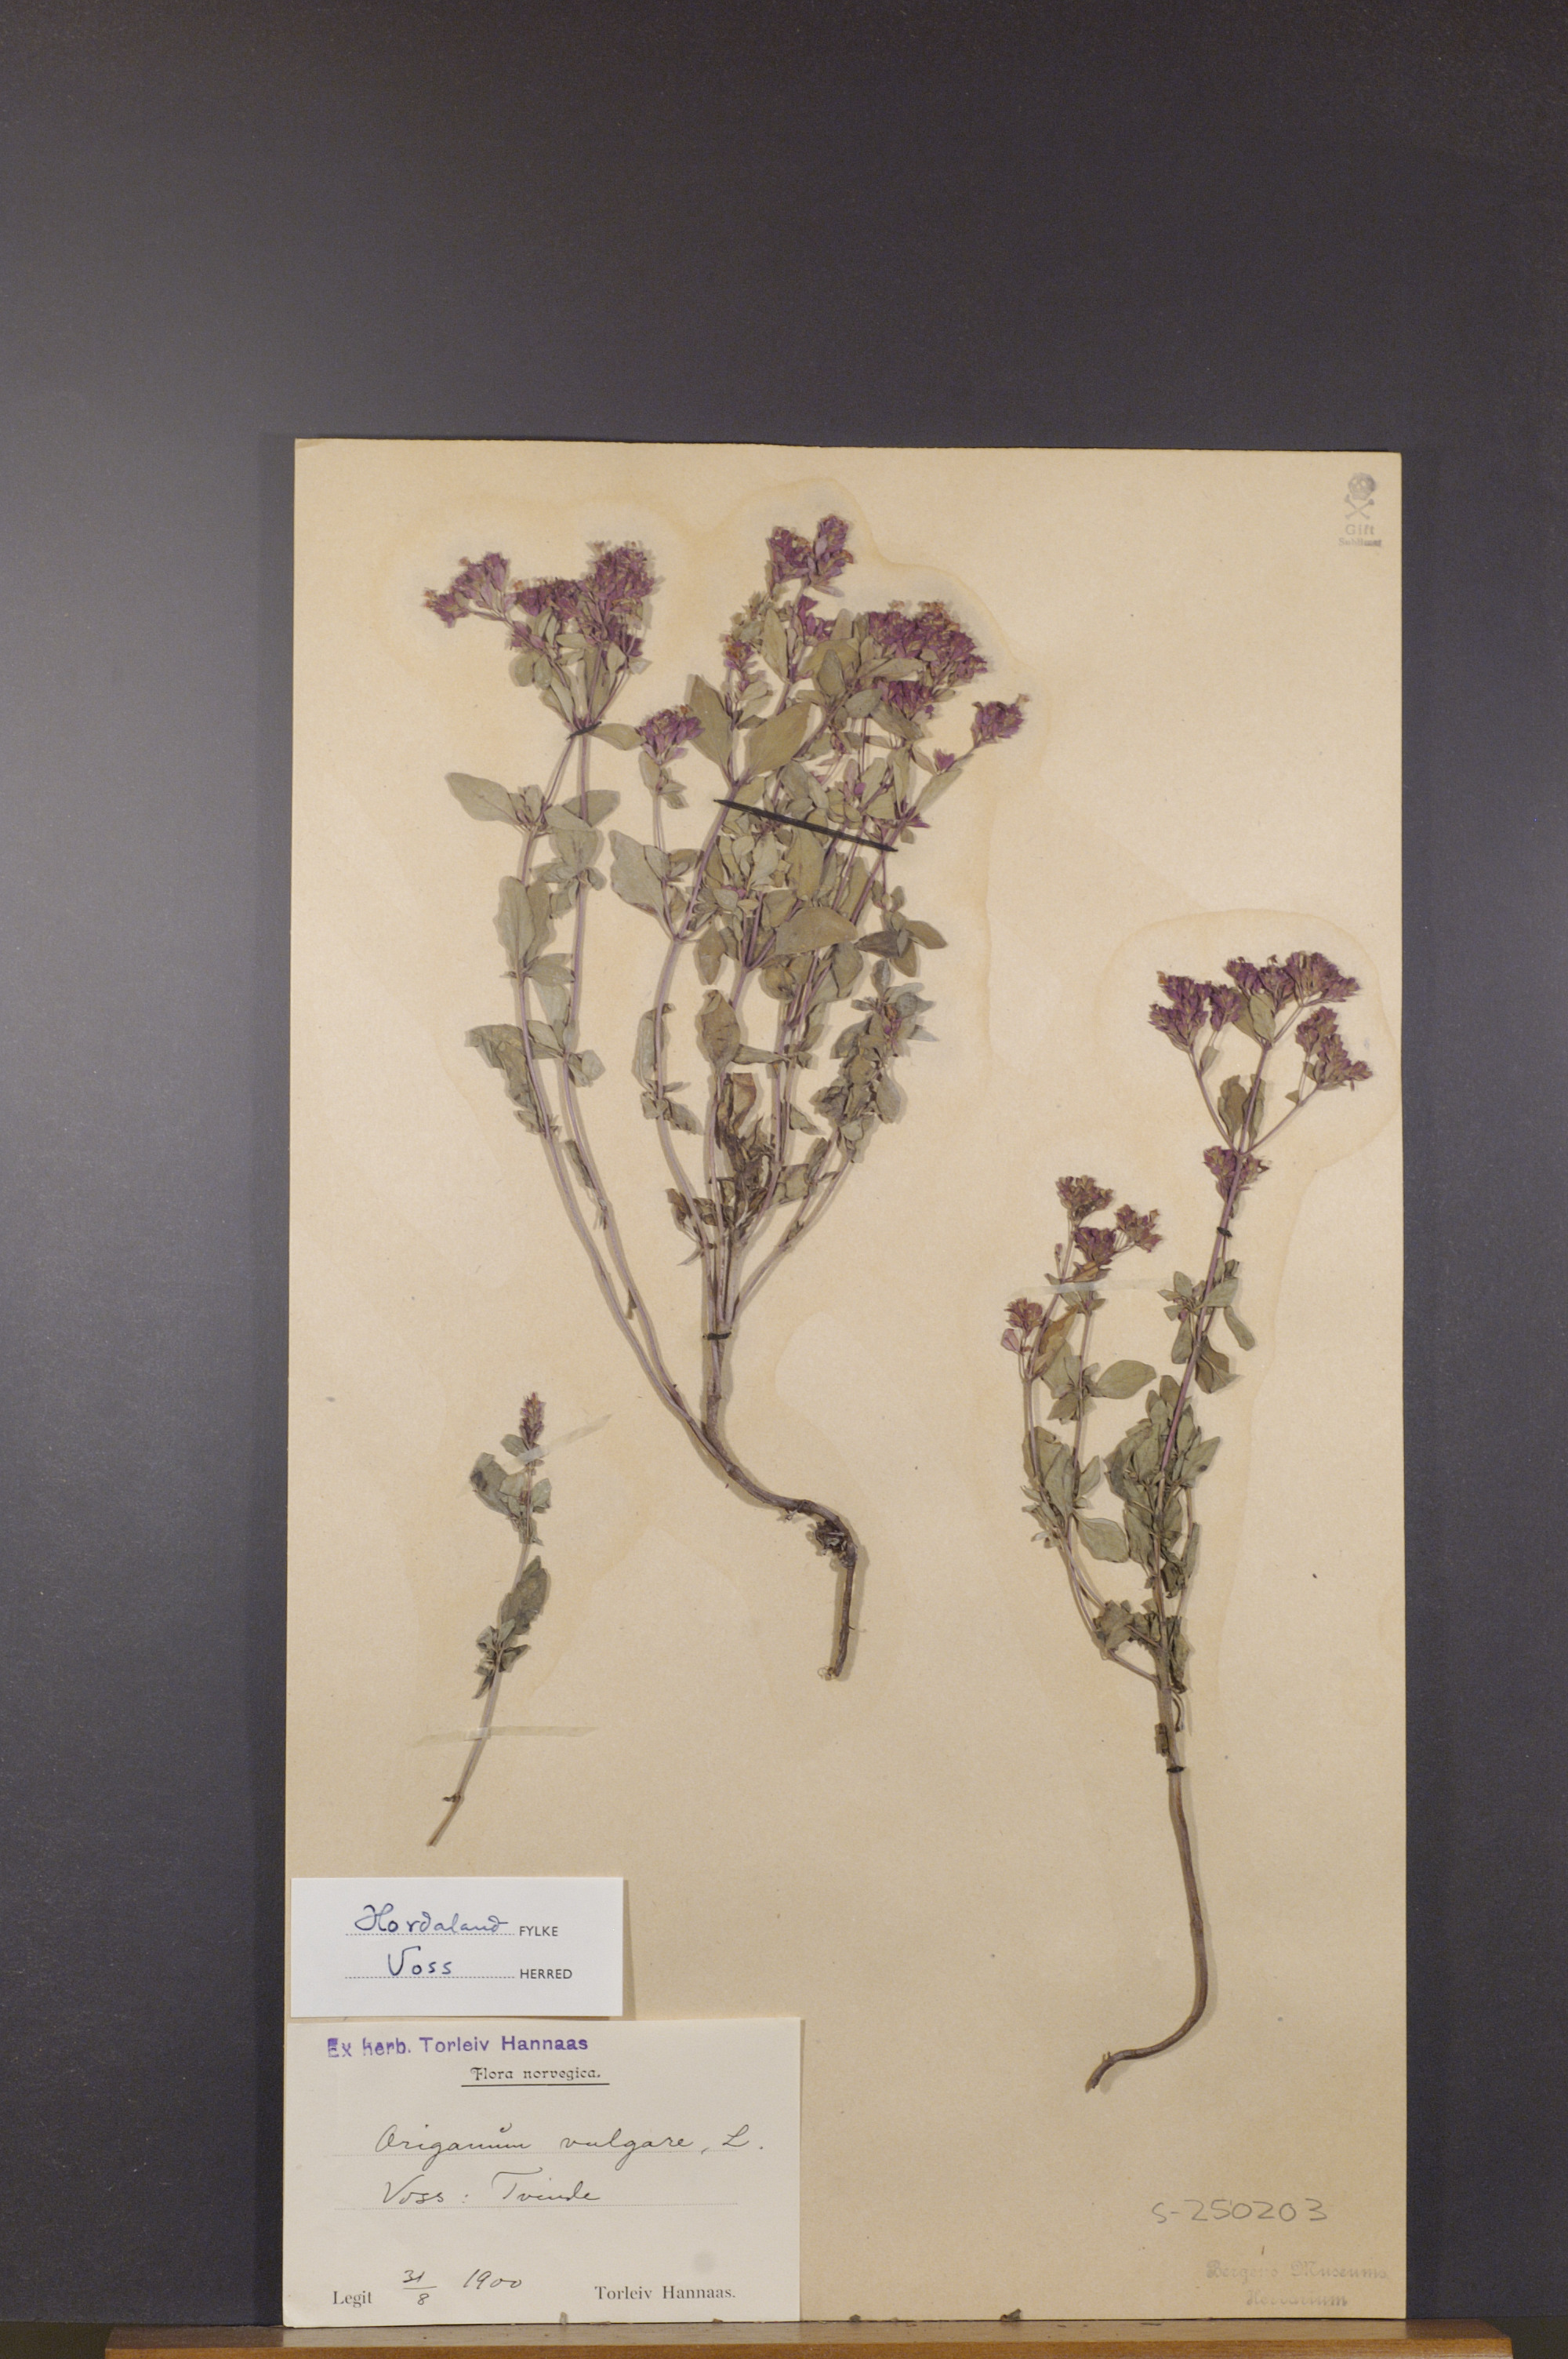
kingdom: Plantae
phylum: Tracheophyta
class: Magnoliopsida
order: Lamiales
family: Lamiaceae
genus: Origanum
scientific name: Origanum vulgare
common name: Wild marjoram
